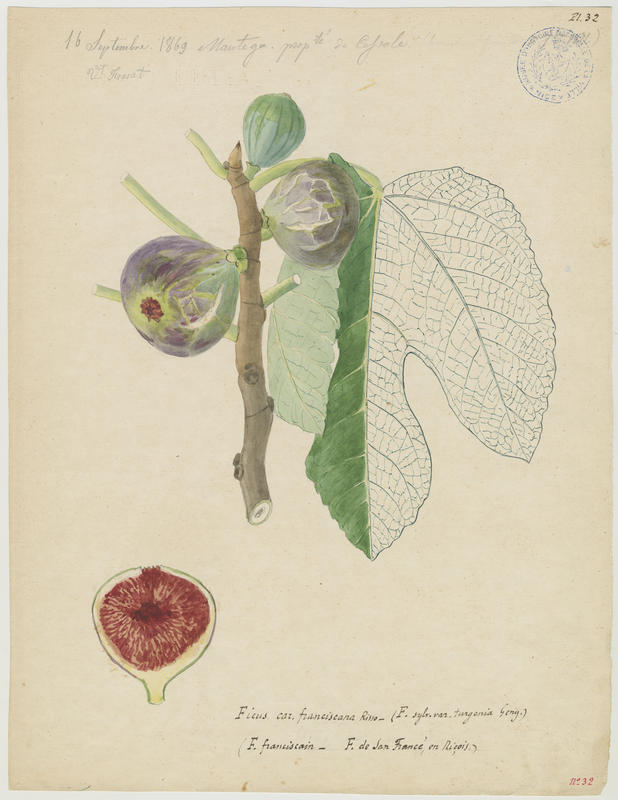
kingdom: Plantae
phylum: Tracheophyta
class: Magnoliopsida
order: Rosales
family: Moraceae
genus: Ficus
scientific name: Ficus carica
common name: Fig
